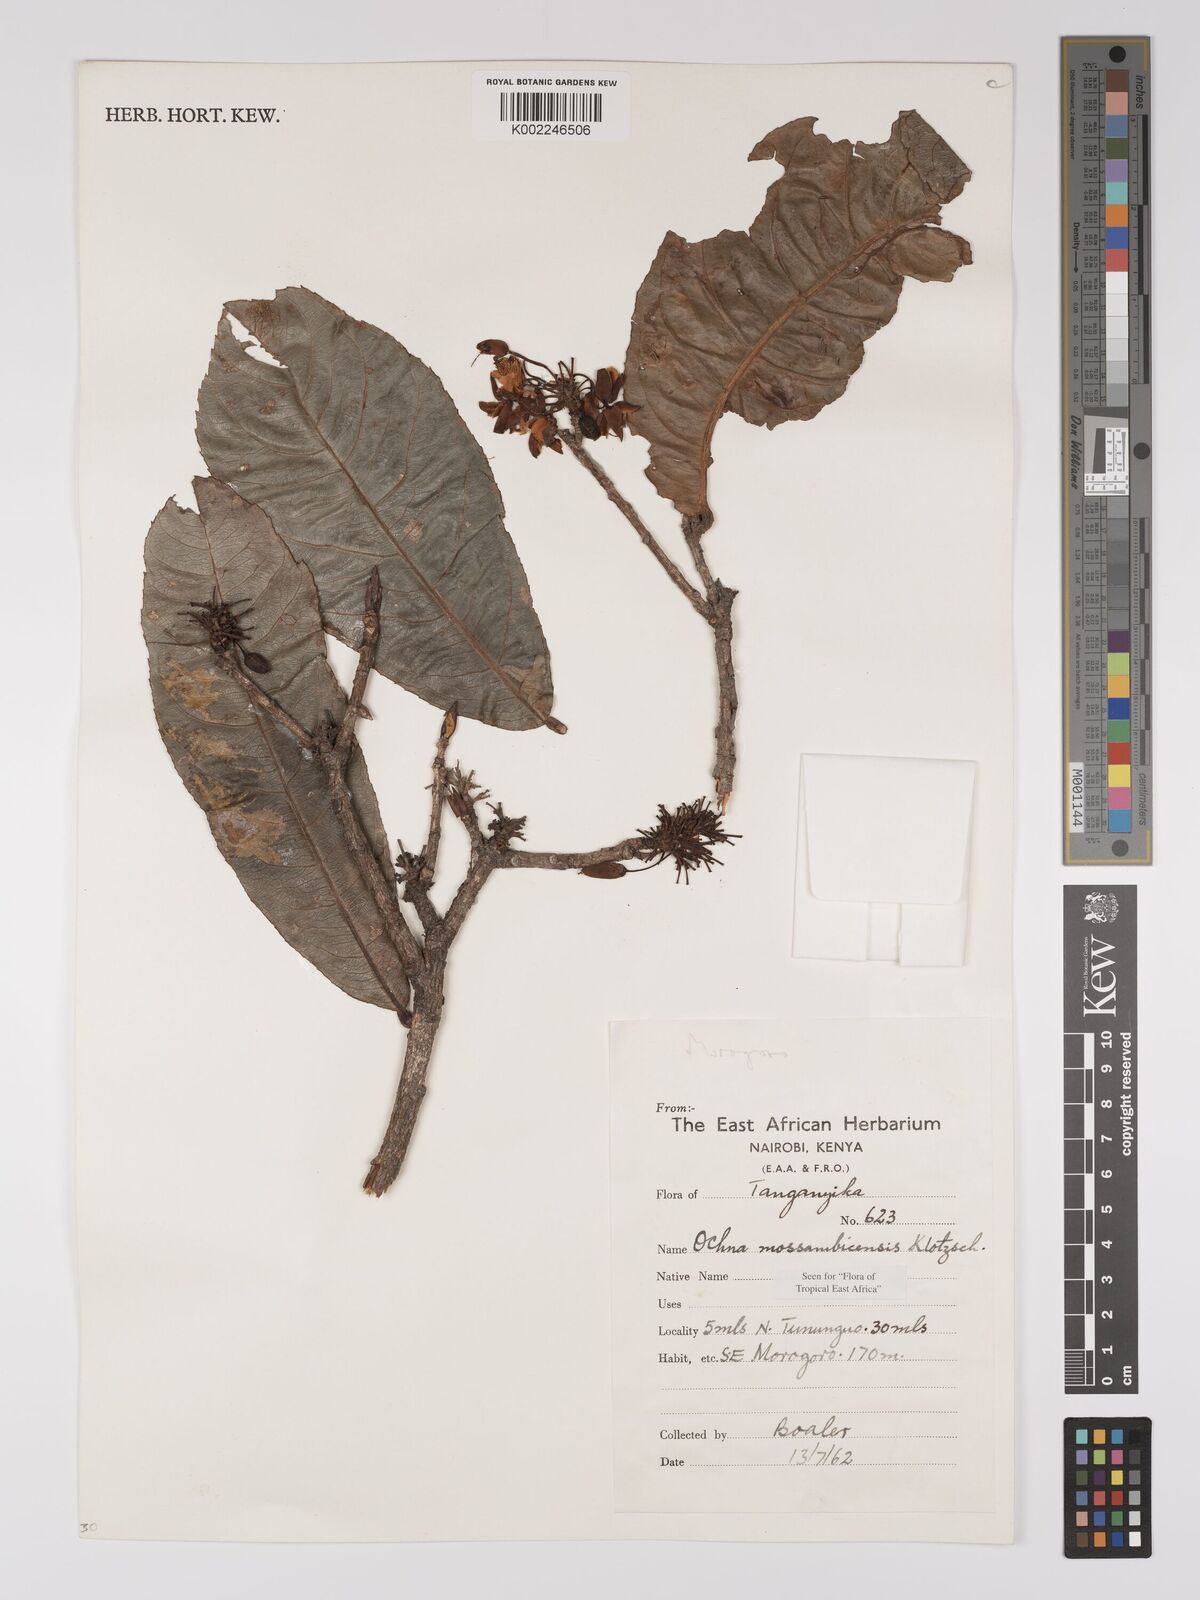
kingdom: Plantae
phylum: Tracheophyta
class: Magnoliopsida
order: Malpighiales
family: Ochnaceae
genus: Ochna
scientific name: Ochna atropurpurea
